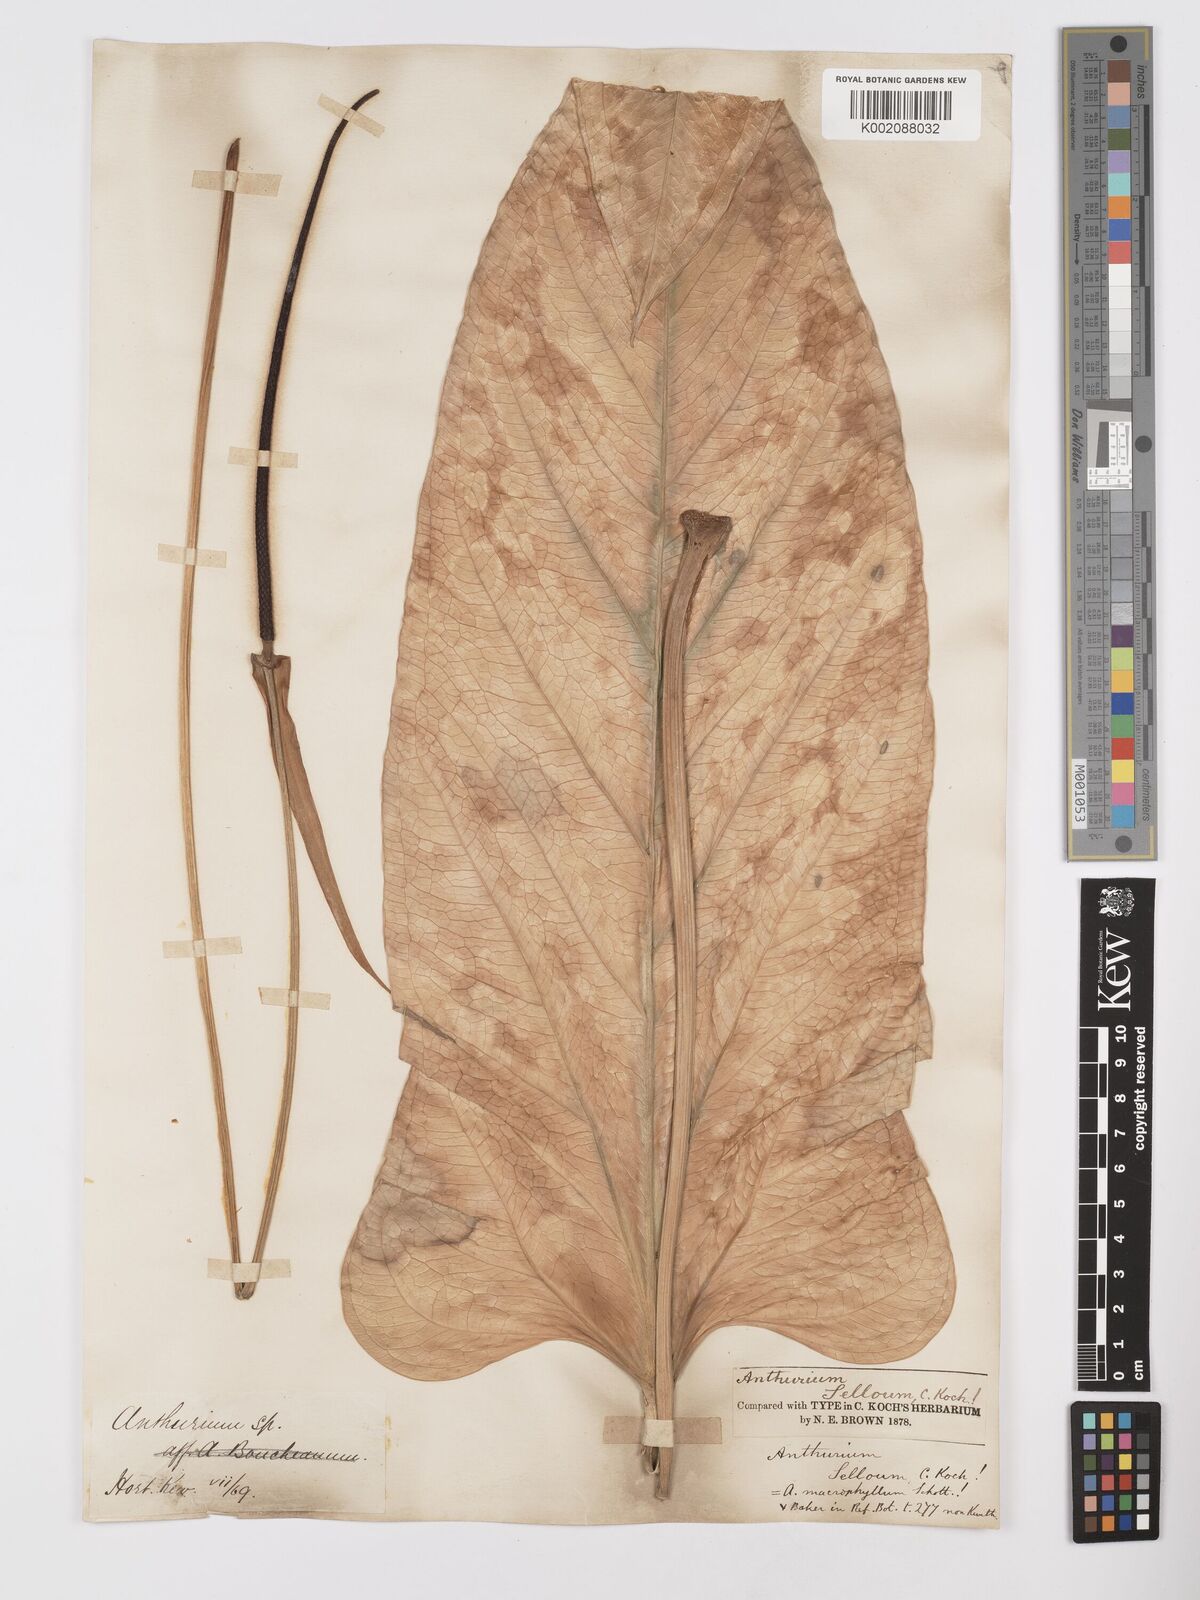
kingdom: Plantae
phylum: Tracheophyta
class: Liliopsida
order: Alismatales
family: Araceae
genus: Anthurium
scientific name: Anthurium
